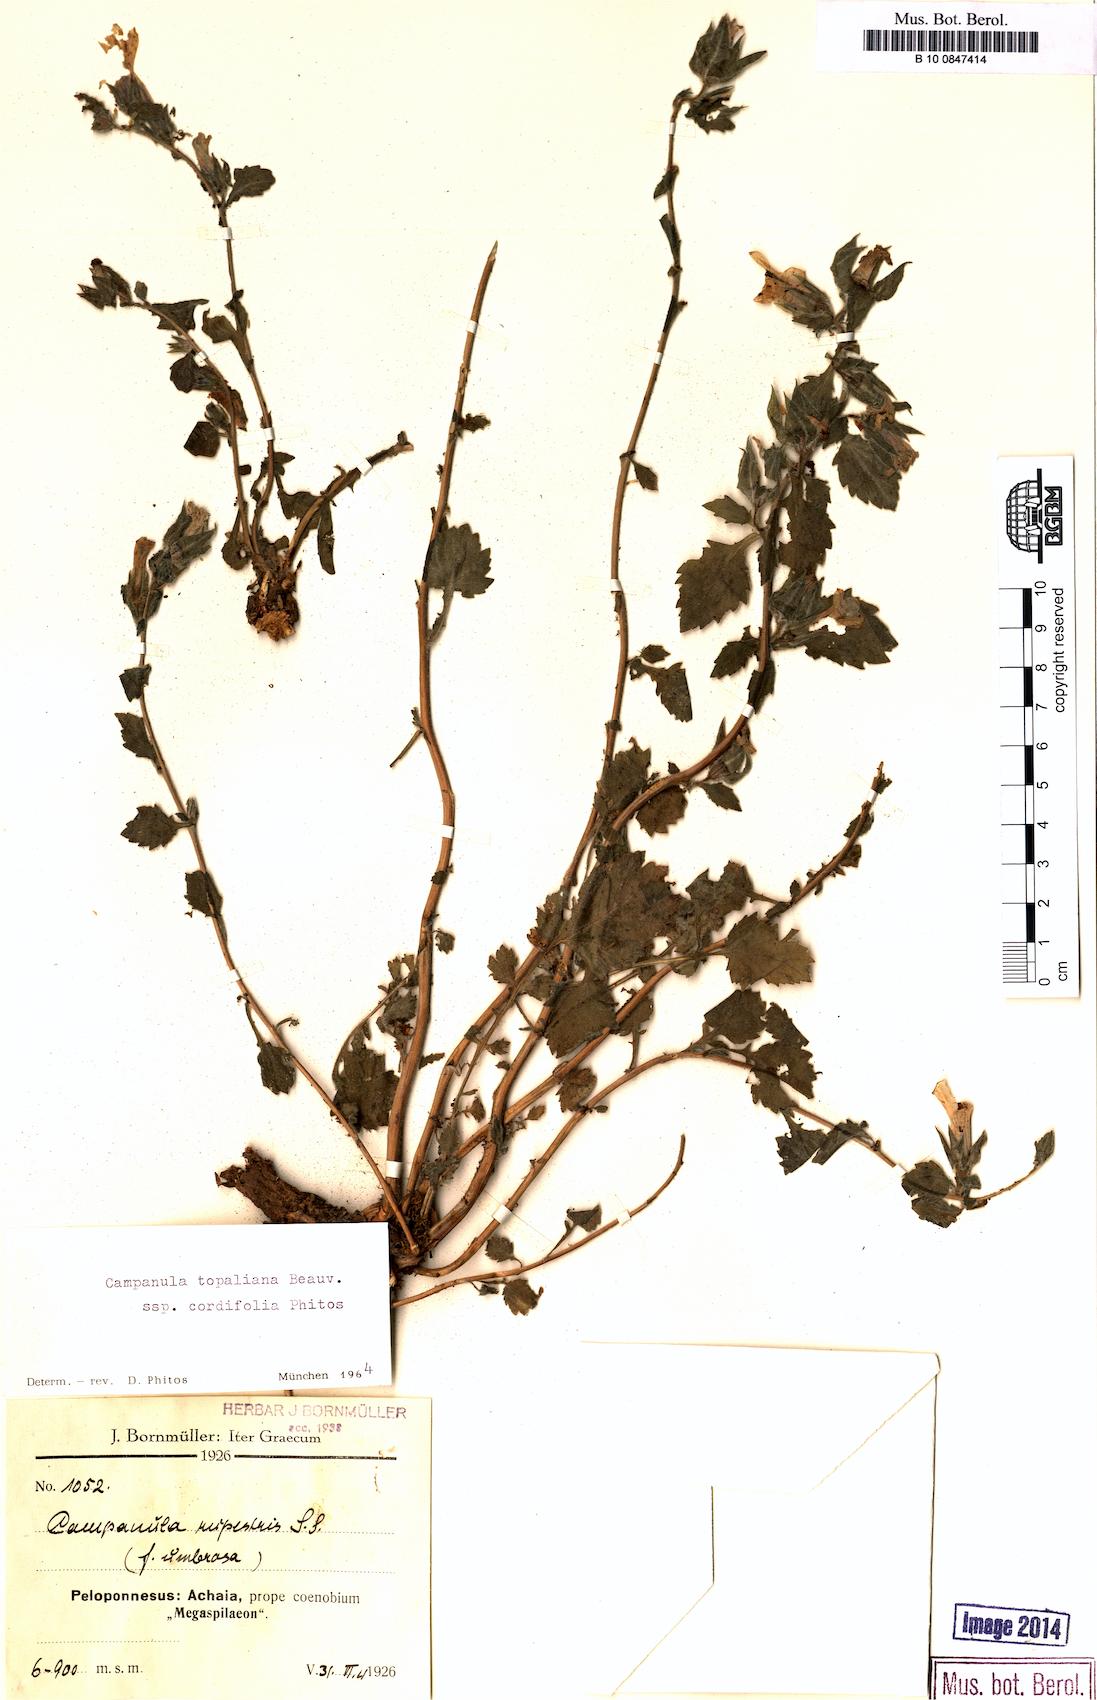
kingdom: Plantae
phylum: Tracheophyta
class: Magnoliopsida
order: Asterales
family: Campanulaceae
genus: Campanula
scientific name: Campanula topaliana
